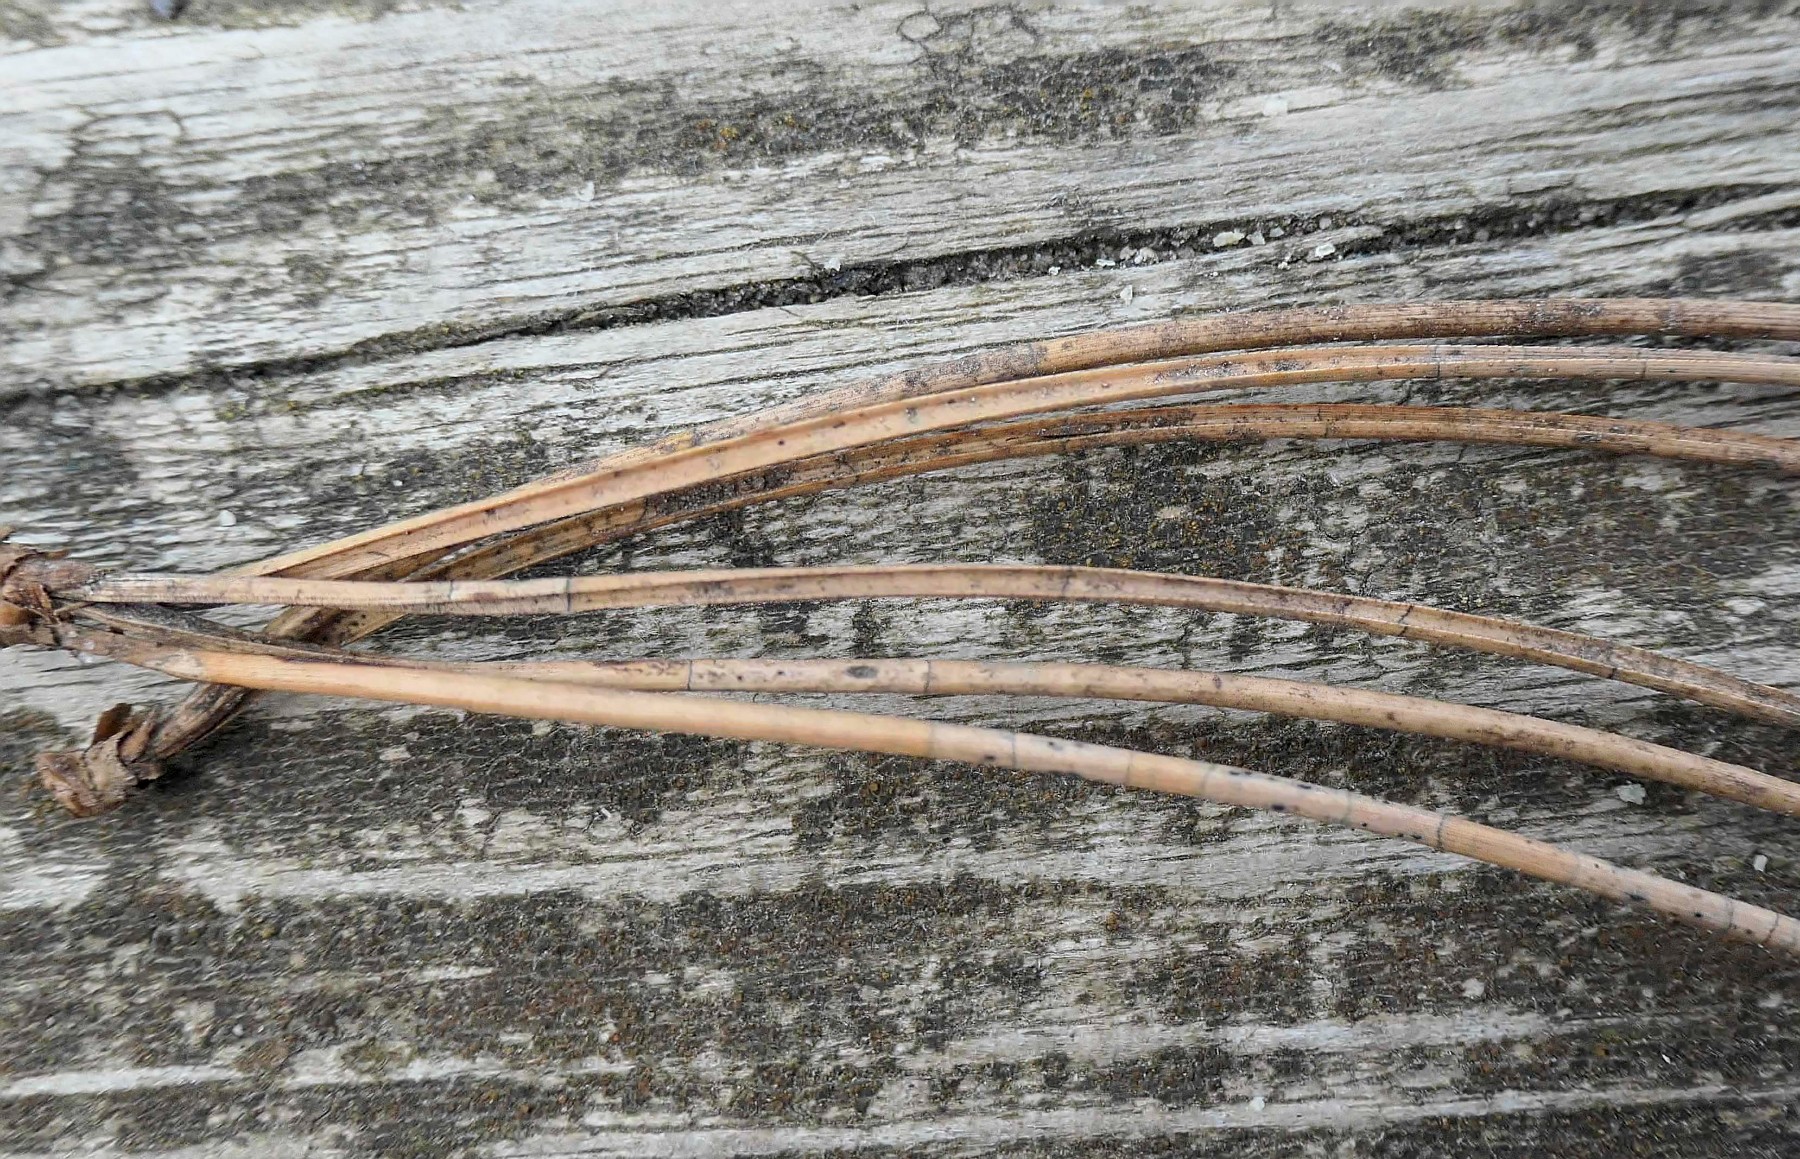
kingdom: Fungi
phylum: Ascomycota
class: Leotiomycetes
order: Rhytismatales
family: Rhytismataceae
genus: Lophodermium
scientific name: Lophodermium pinastri
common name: fyrre-fureplet
